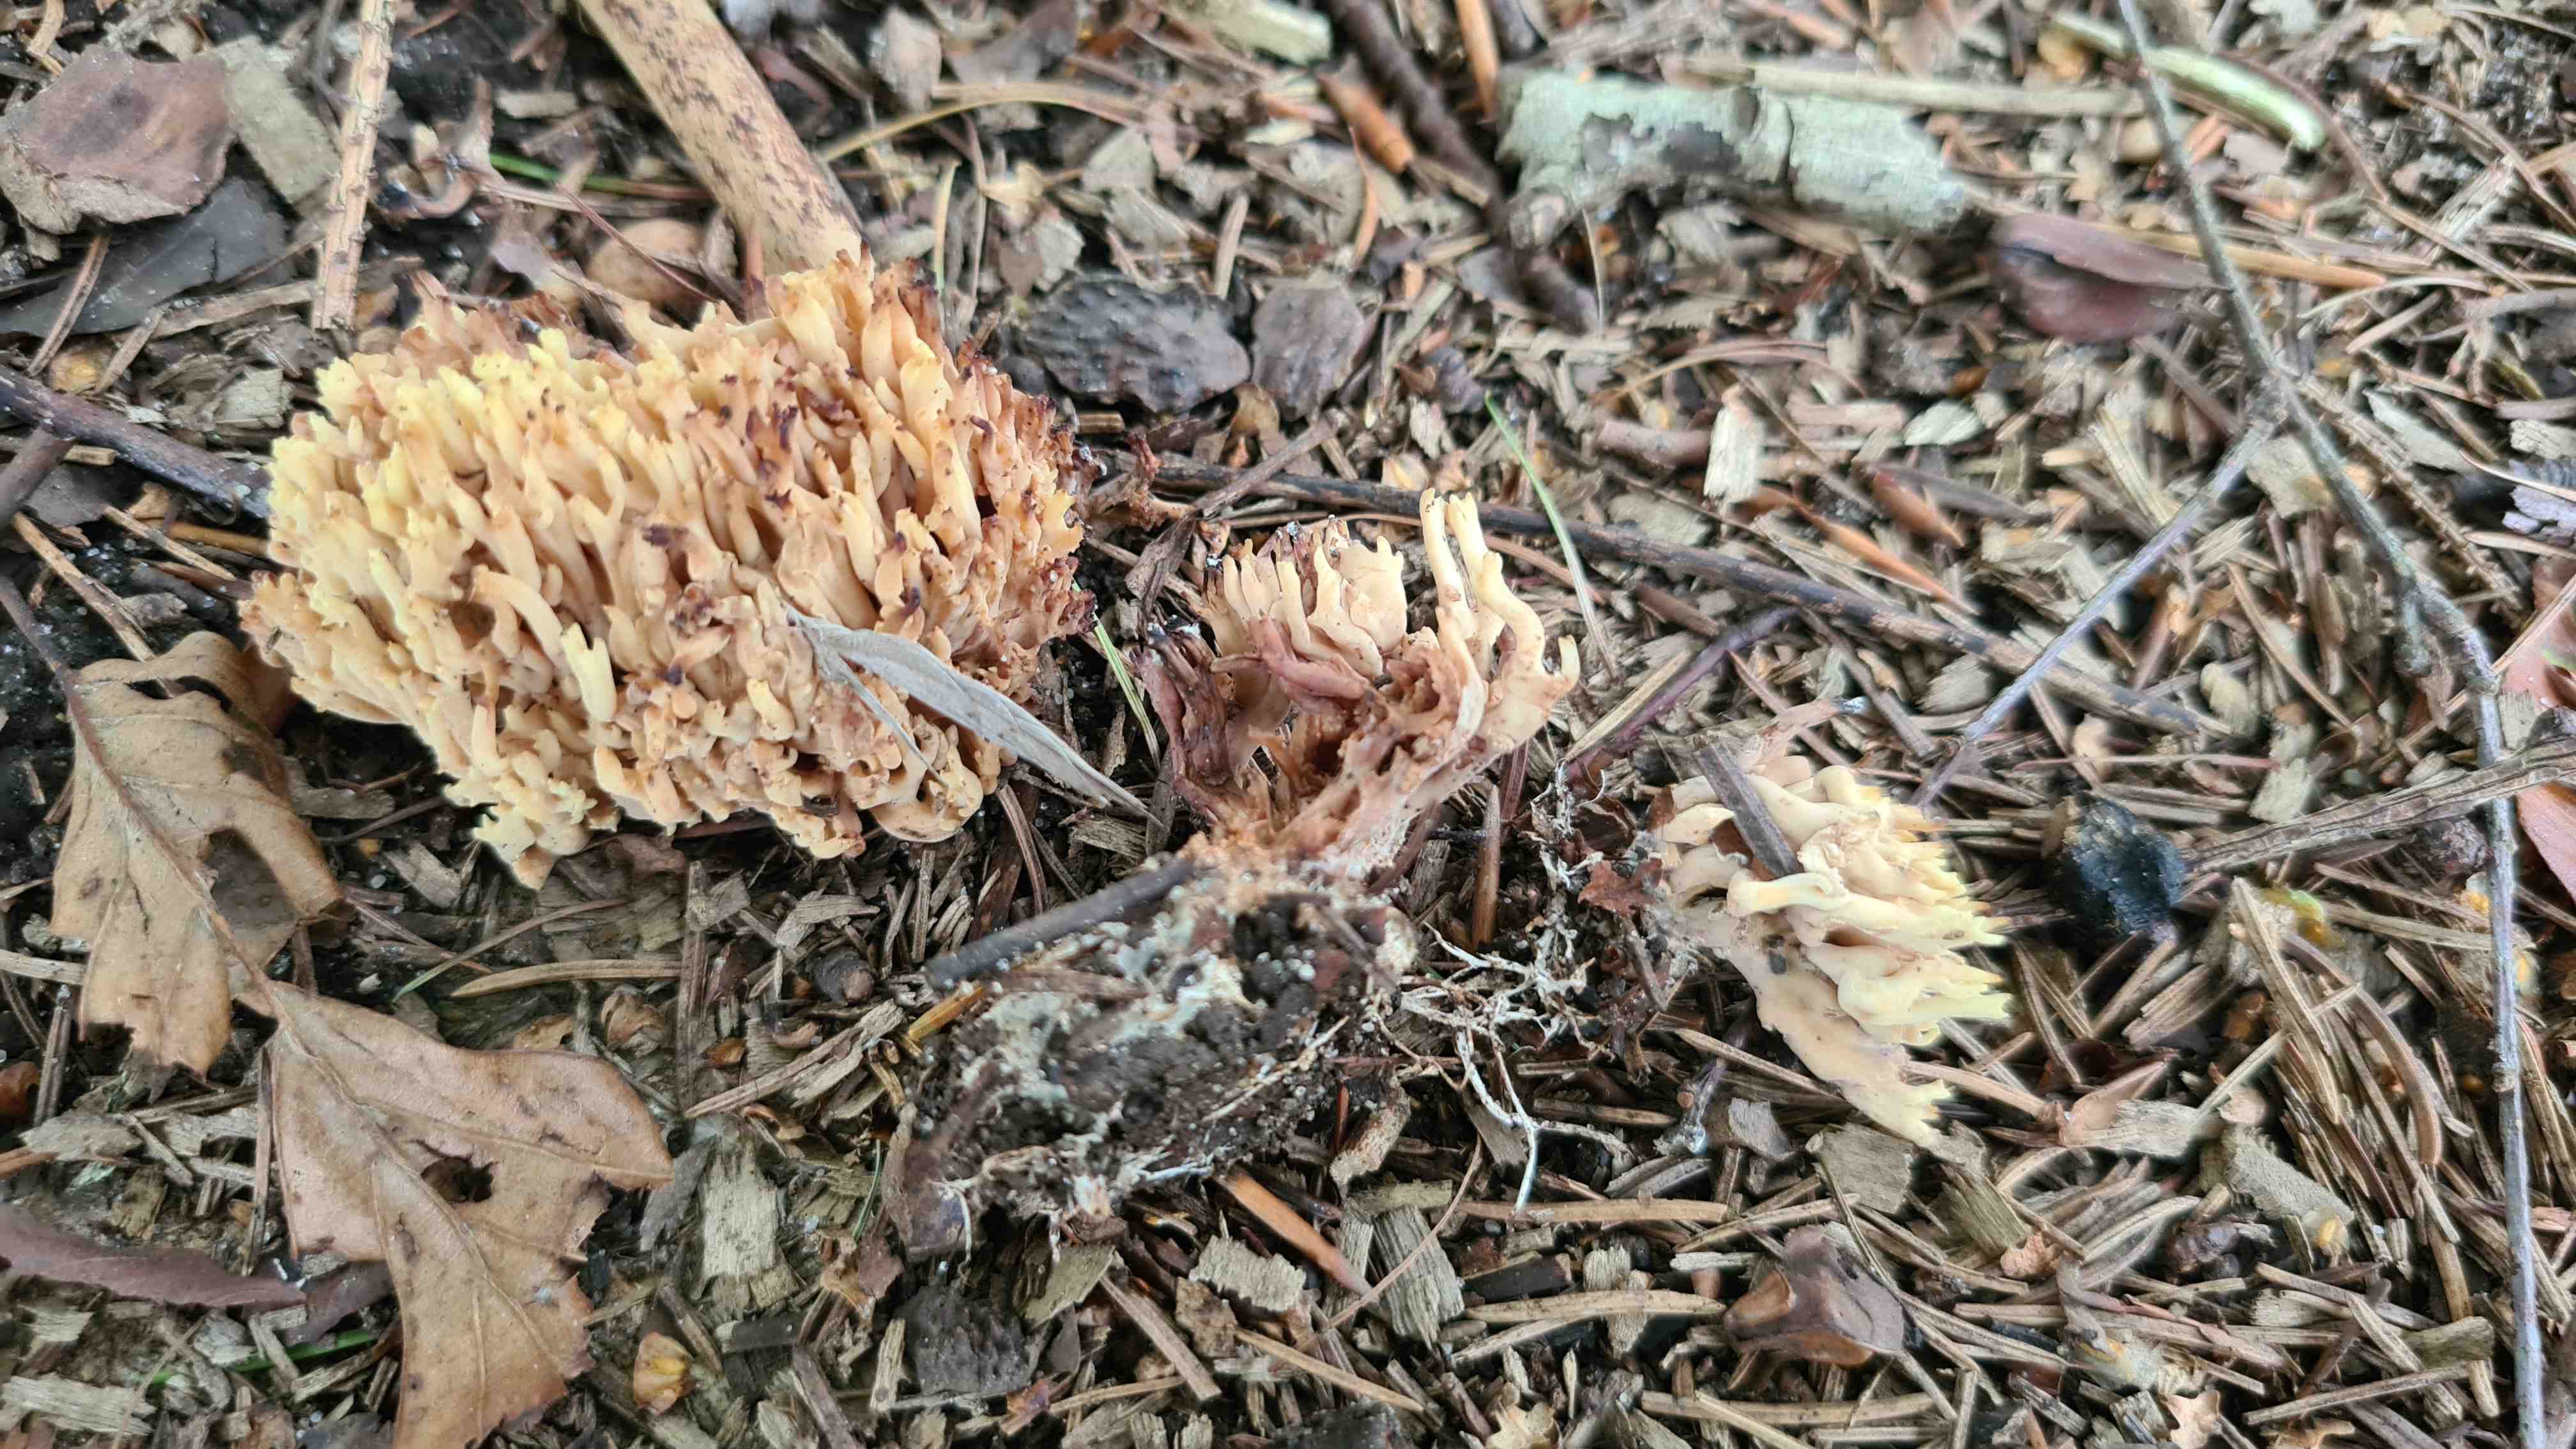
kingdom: Fungi
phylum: Basidiomycota
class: Agaricomycetes
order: Gomphales
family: Gomphaceae
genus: Ramaria
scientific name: Ramaria stricta
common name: rank koralsvamp
